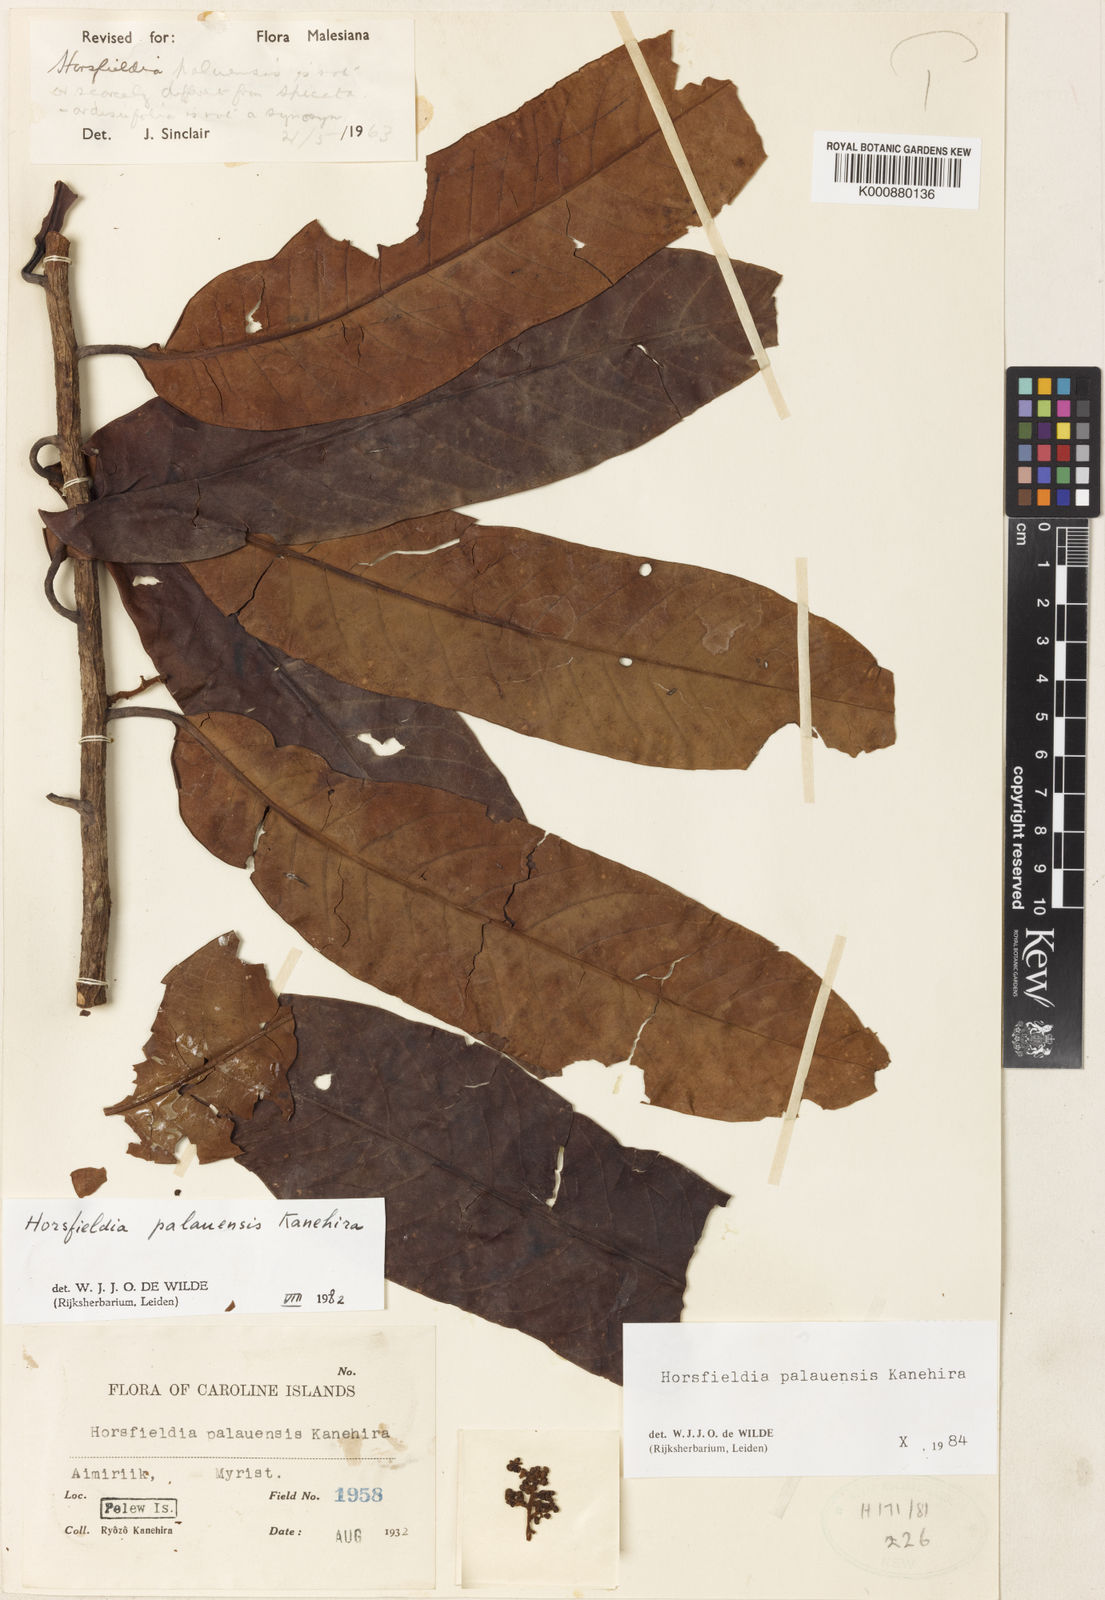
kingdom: Plantae
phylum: Tracheophyta
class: Magnoliopsida
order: Magnoliales
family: Myristicaceae
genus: Horsfieldia
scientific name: Horsfieldia palauensis
